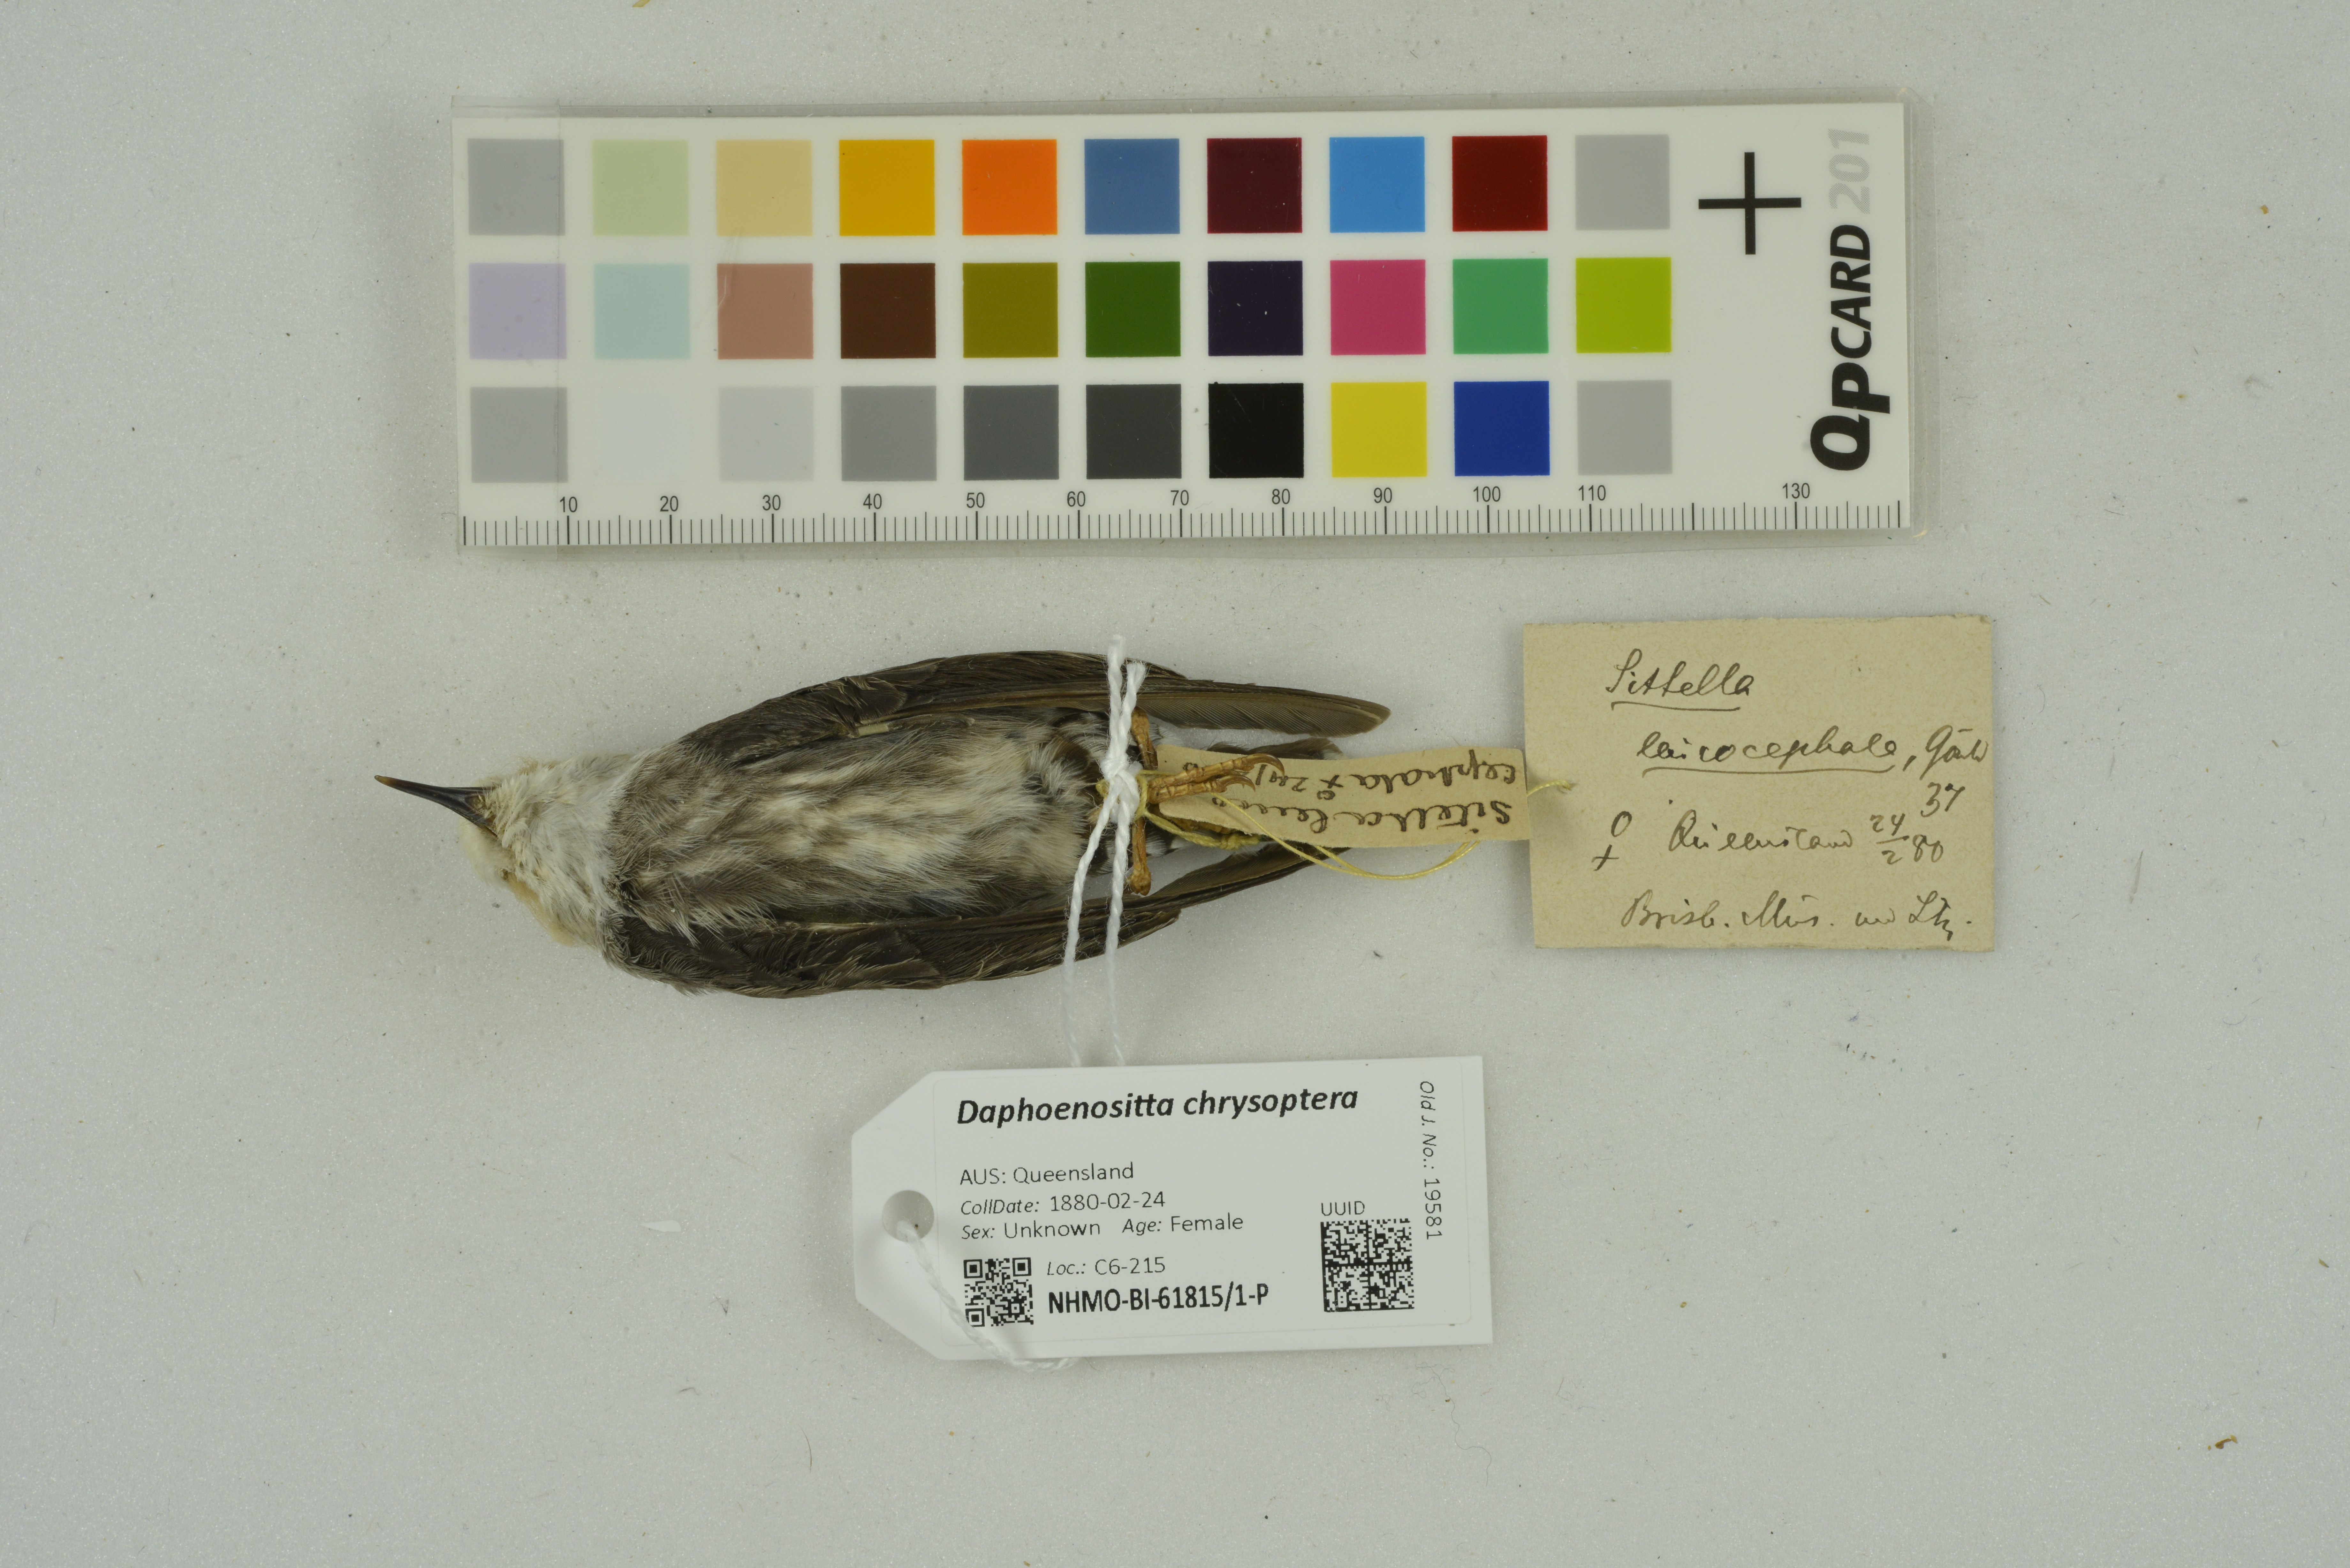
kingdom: Animalia
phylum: Chordata
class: Aves
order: Passeriformes
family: Neosittidae
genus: Daphoenositta
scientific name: Daphoenositta chrysoptera
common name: Varied sittella
